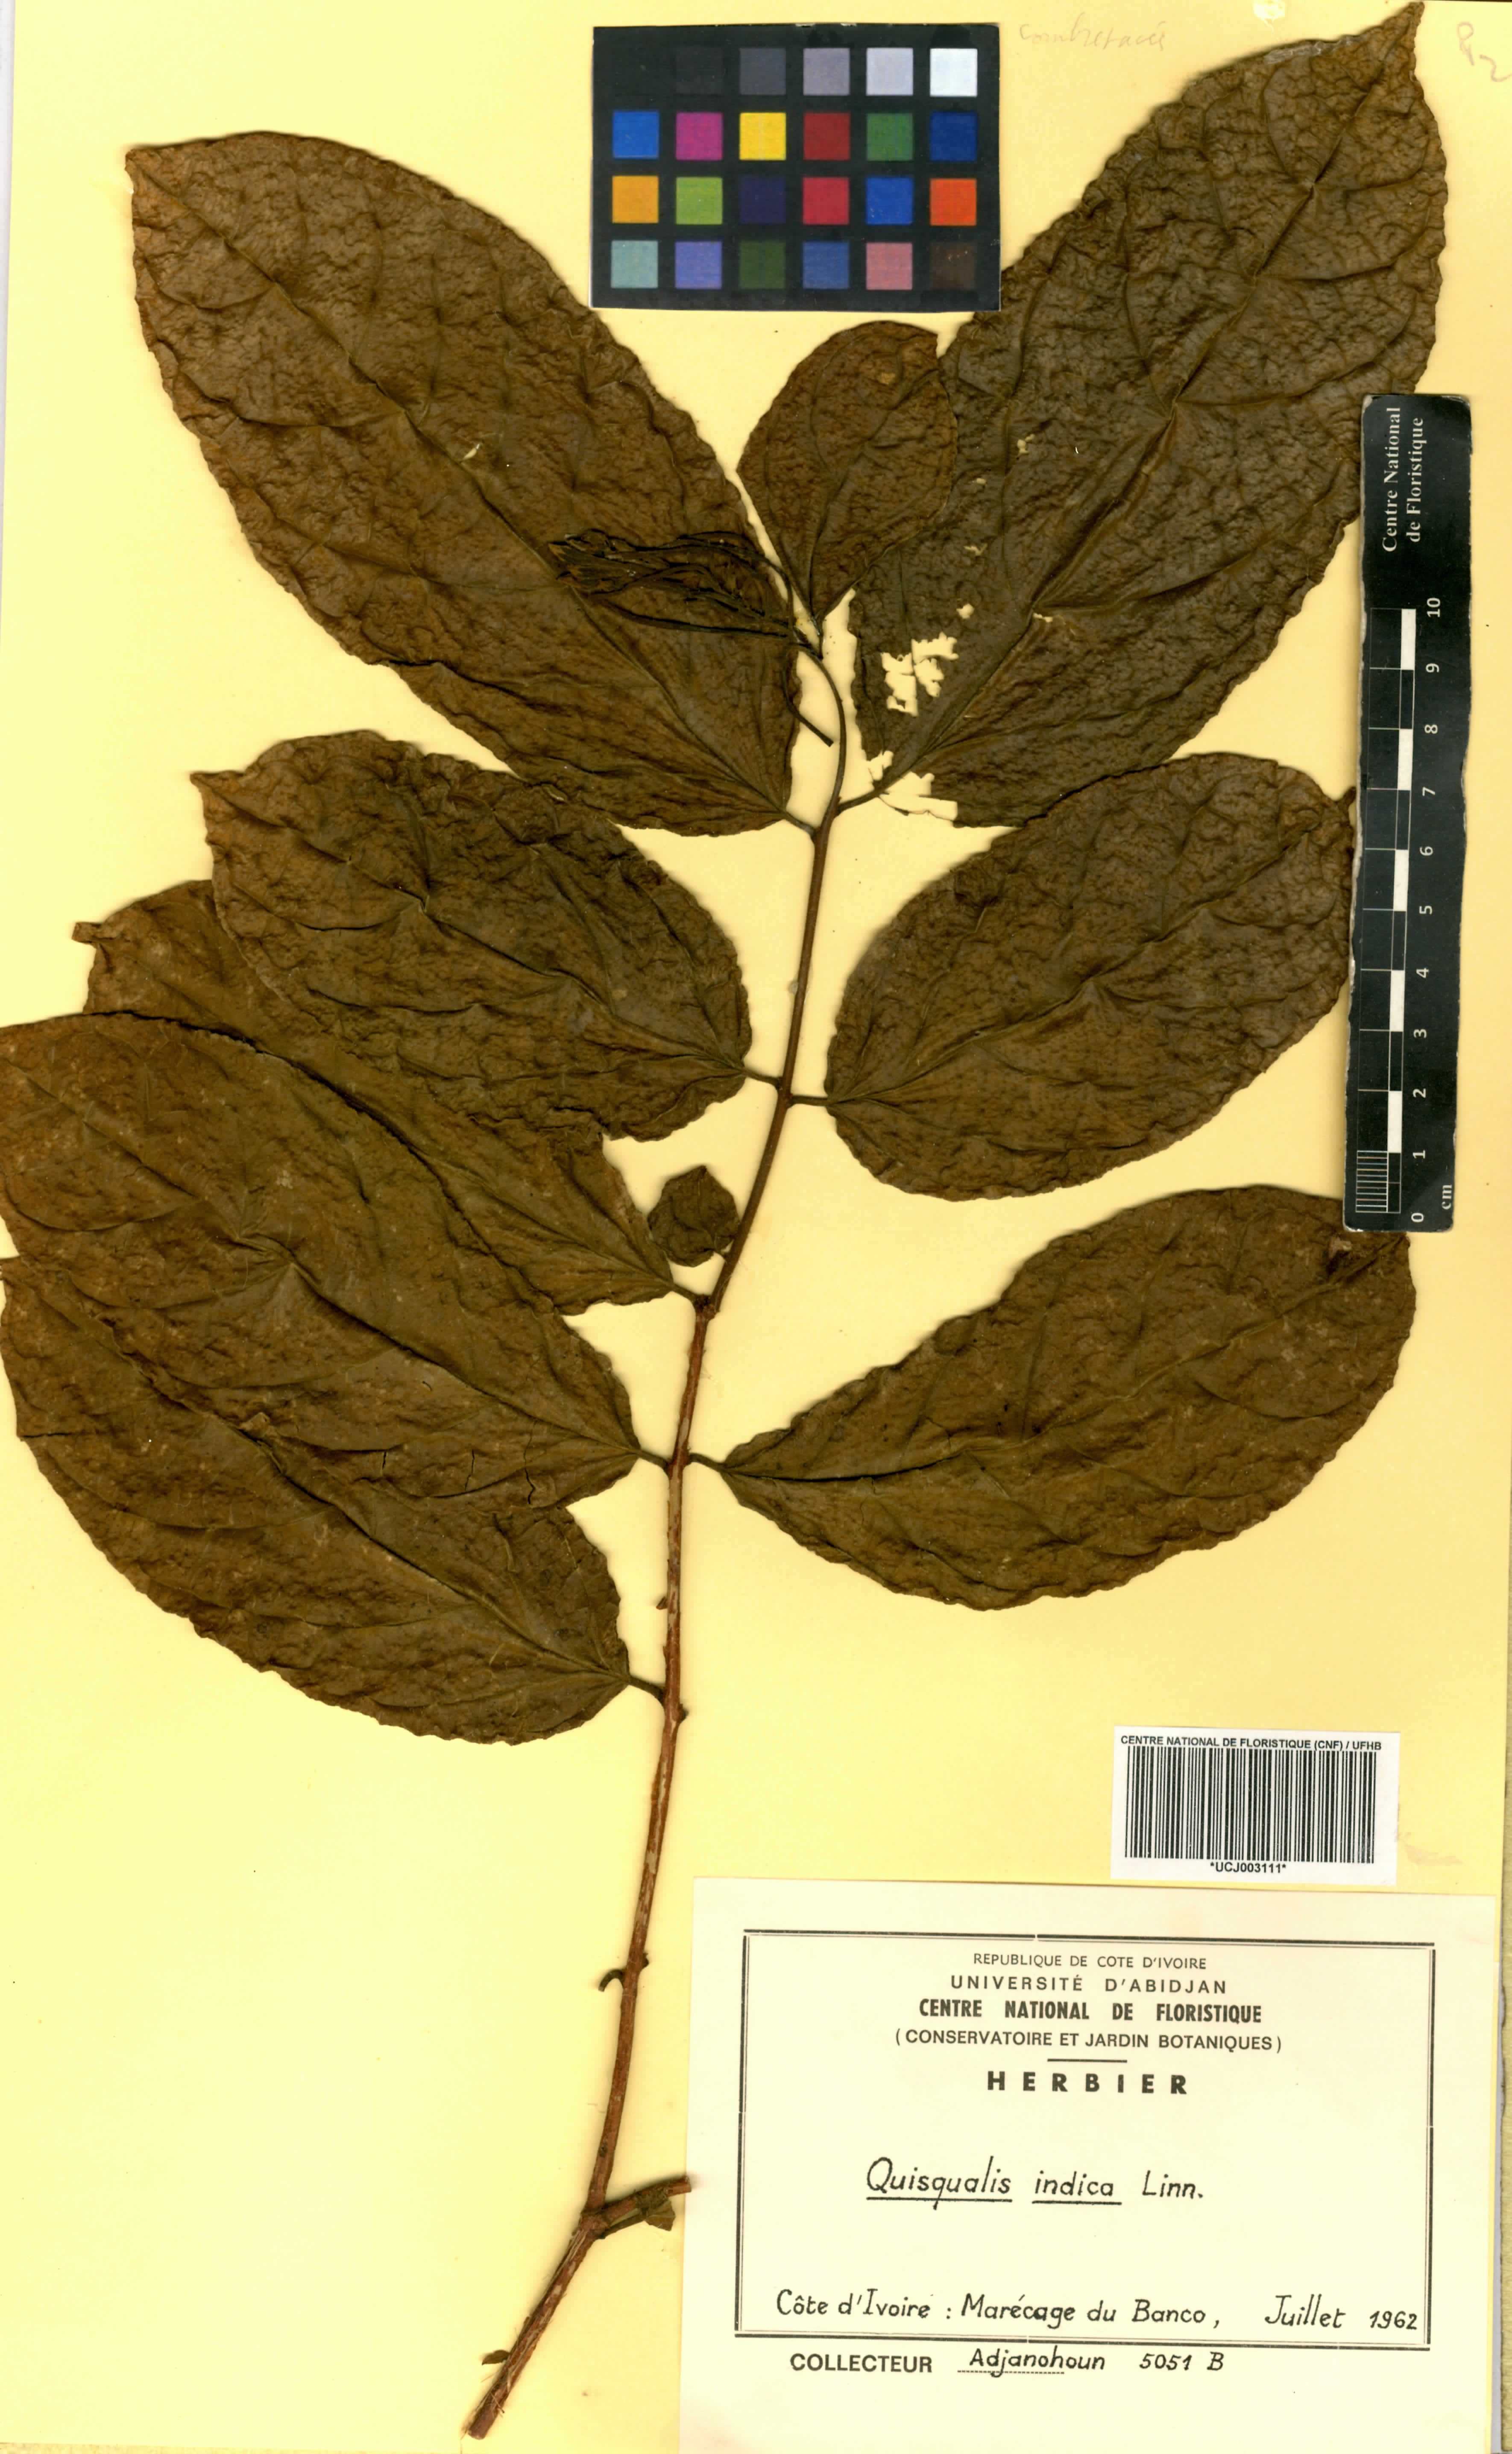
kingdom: Plantae
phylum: Tracheophyta
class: Magnoliopsida
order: Myrtales
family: Combretaceae
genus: Combretum
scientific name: Combretum indicum
